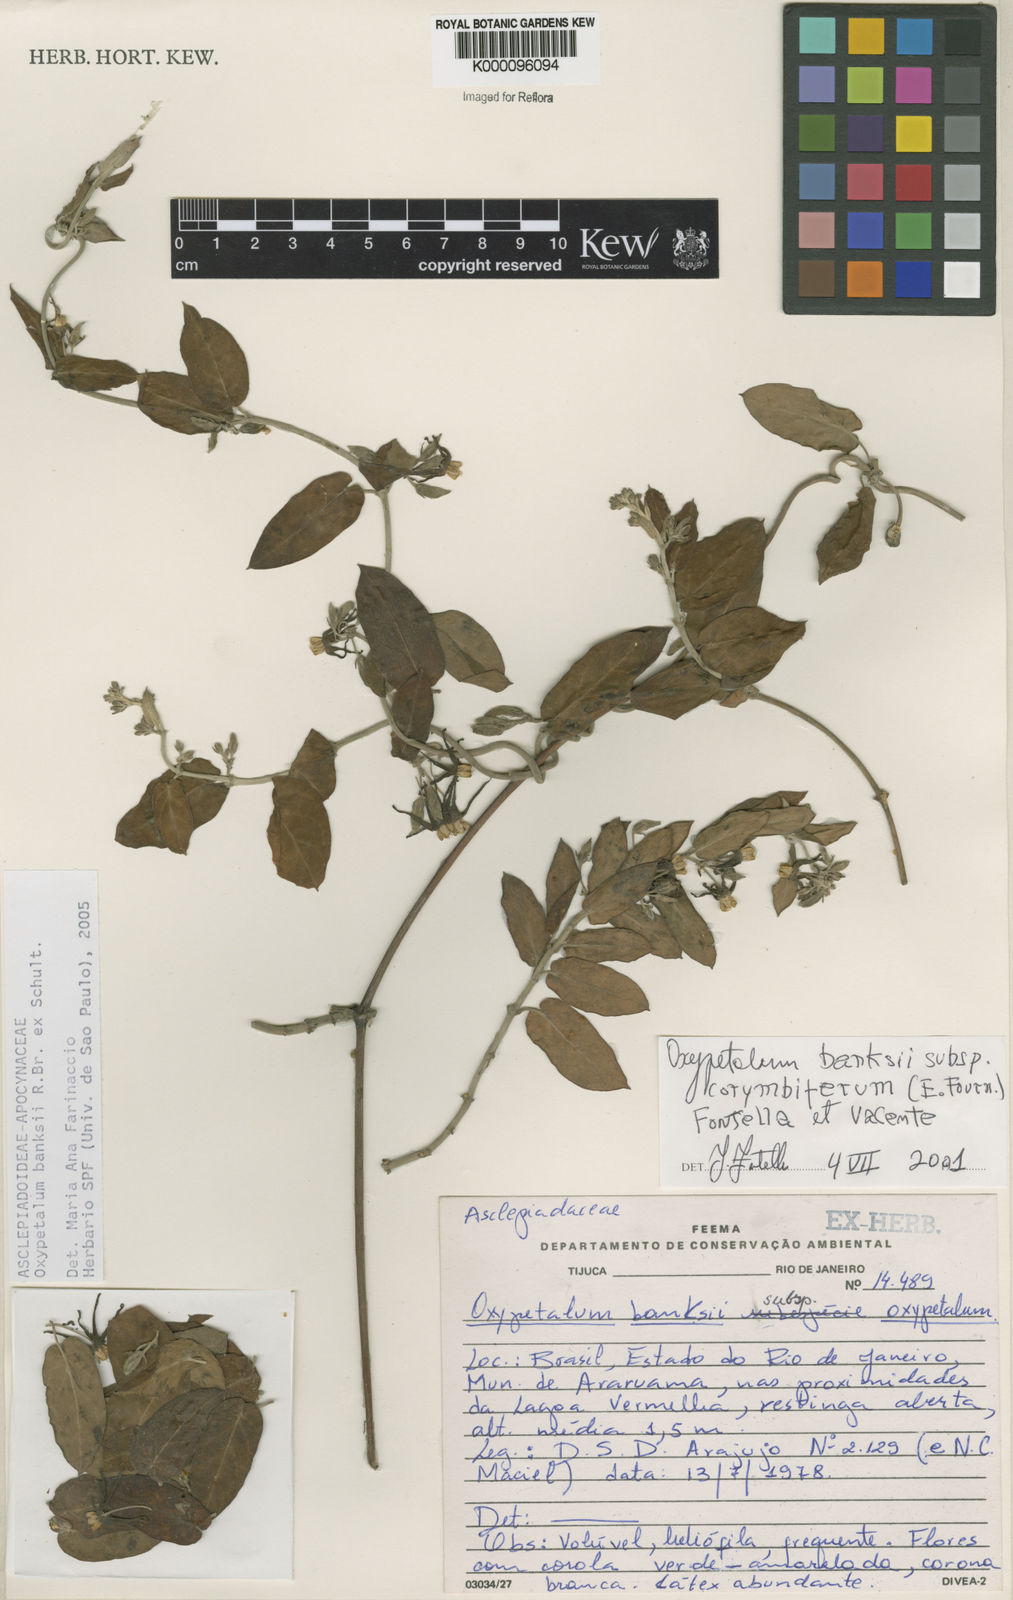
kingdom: Plantae
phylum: Tracheophyta
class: Magnoliopsida
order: Gentianales
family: Apocynaceae
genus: Oxypetalum
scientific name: Oxypetalum banksii
